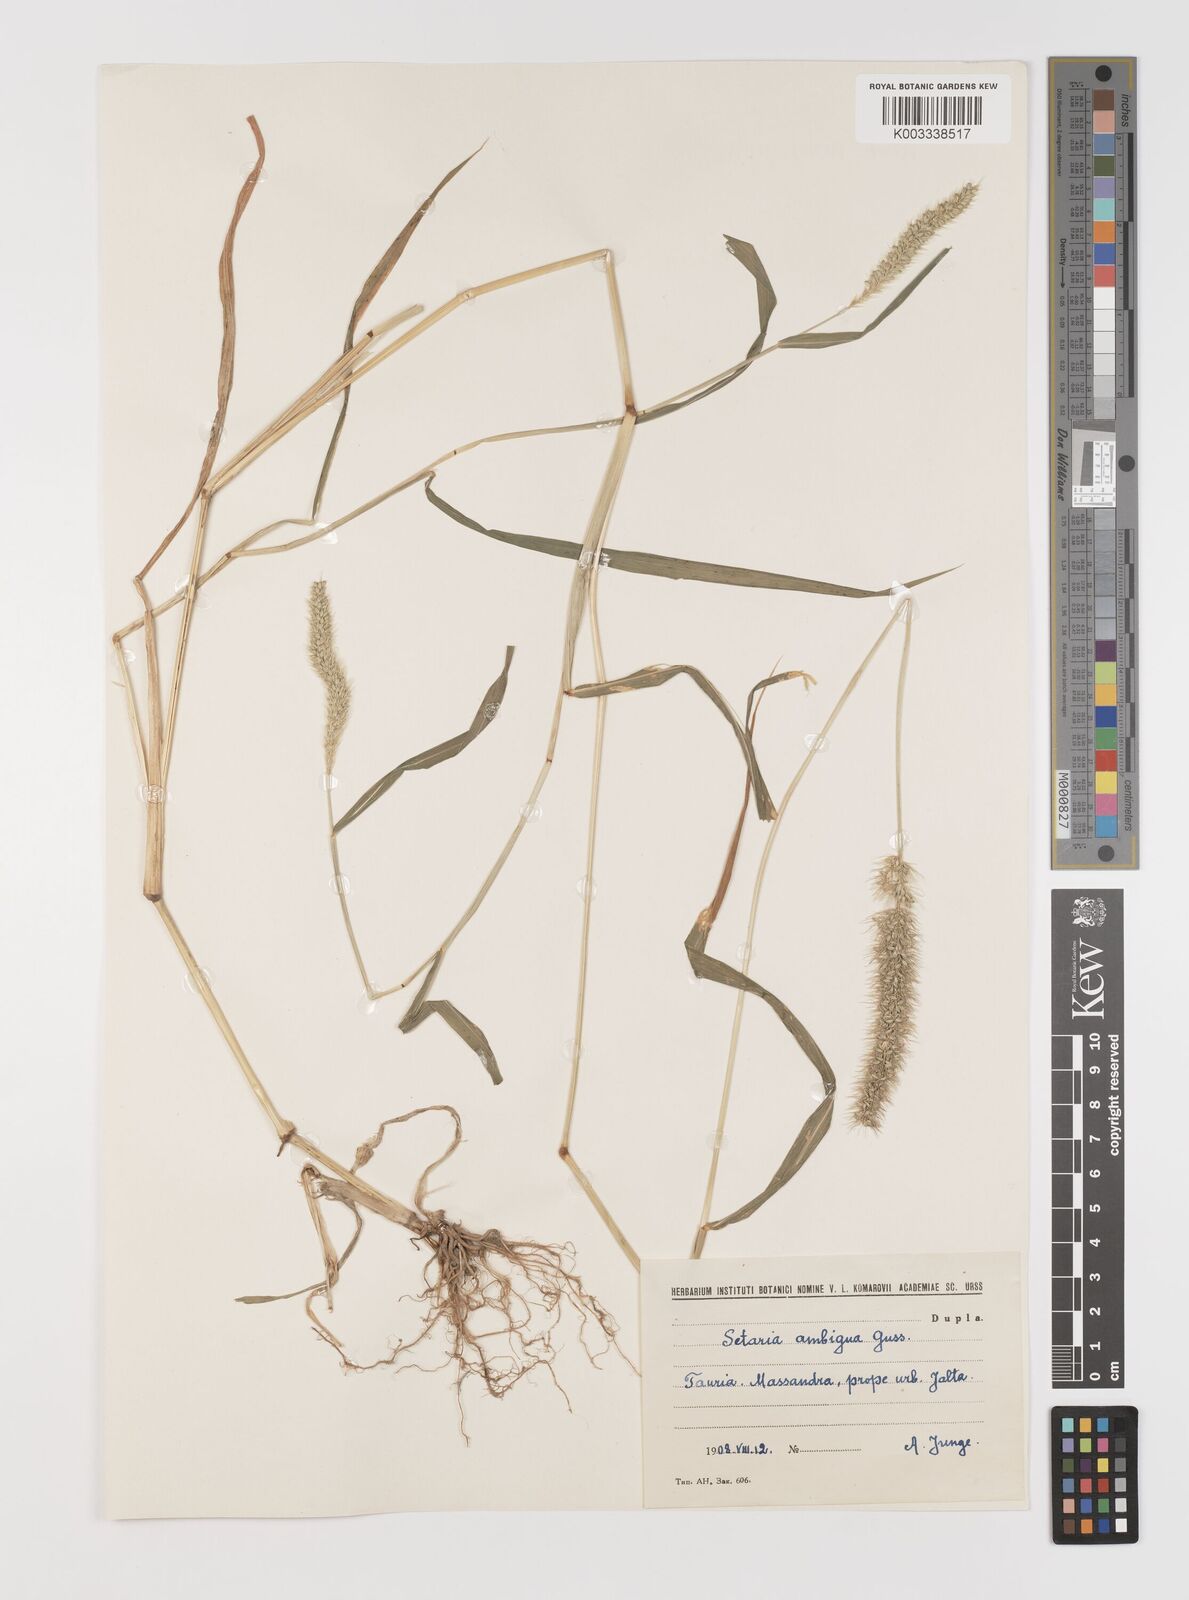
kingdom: Plantae
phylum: Tracheophyta
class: Liliopsida
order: Poales
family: Poaceae
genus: Setaria
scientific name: Setaria verticillata
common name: Hooked bristlegrass
